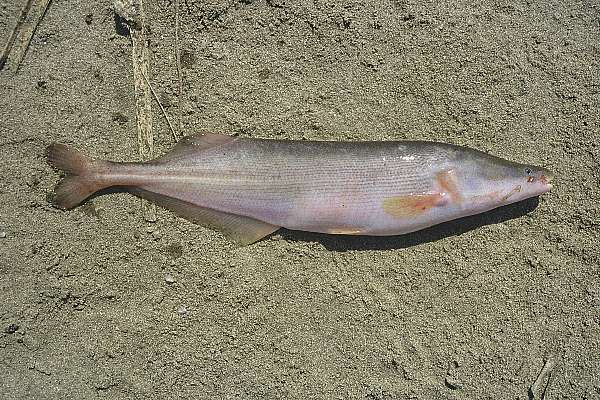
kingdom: Animalia
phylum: Chordata
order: Osteoglossiformes
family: Mormyridae
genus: Mormyrops
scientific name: Mormyrops anguilloides
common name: Cornish jack
